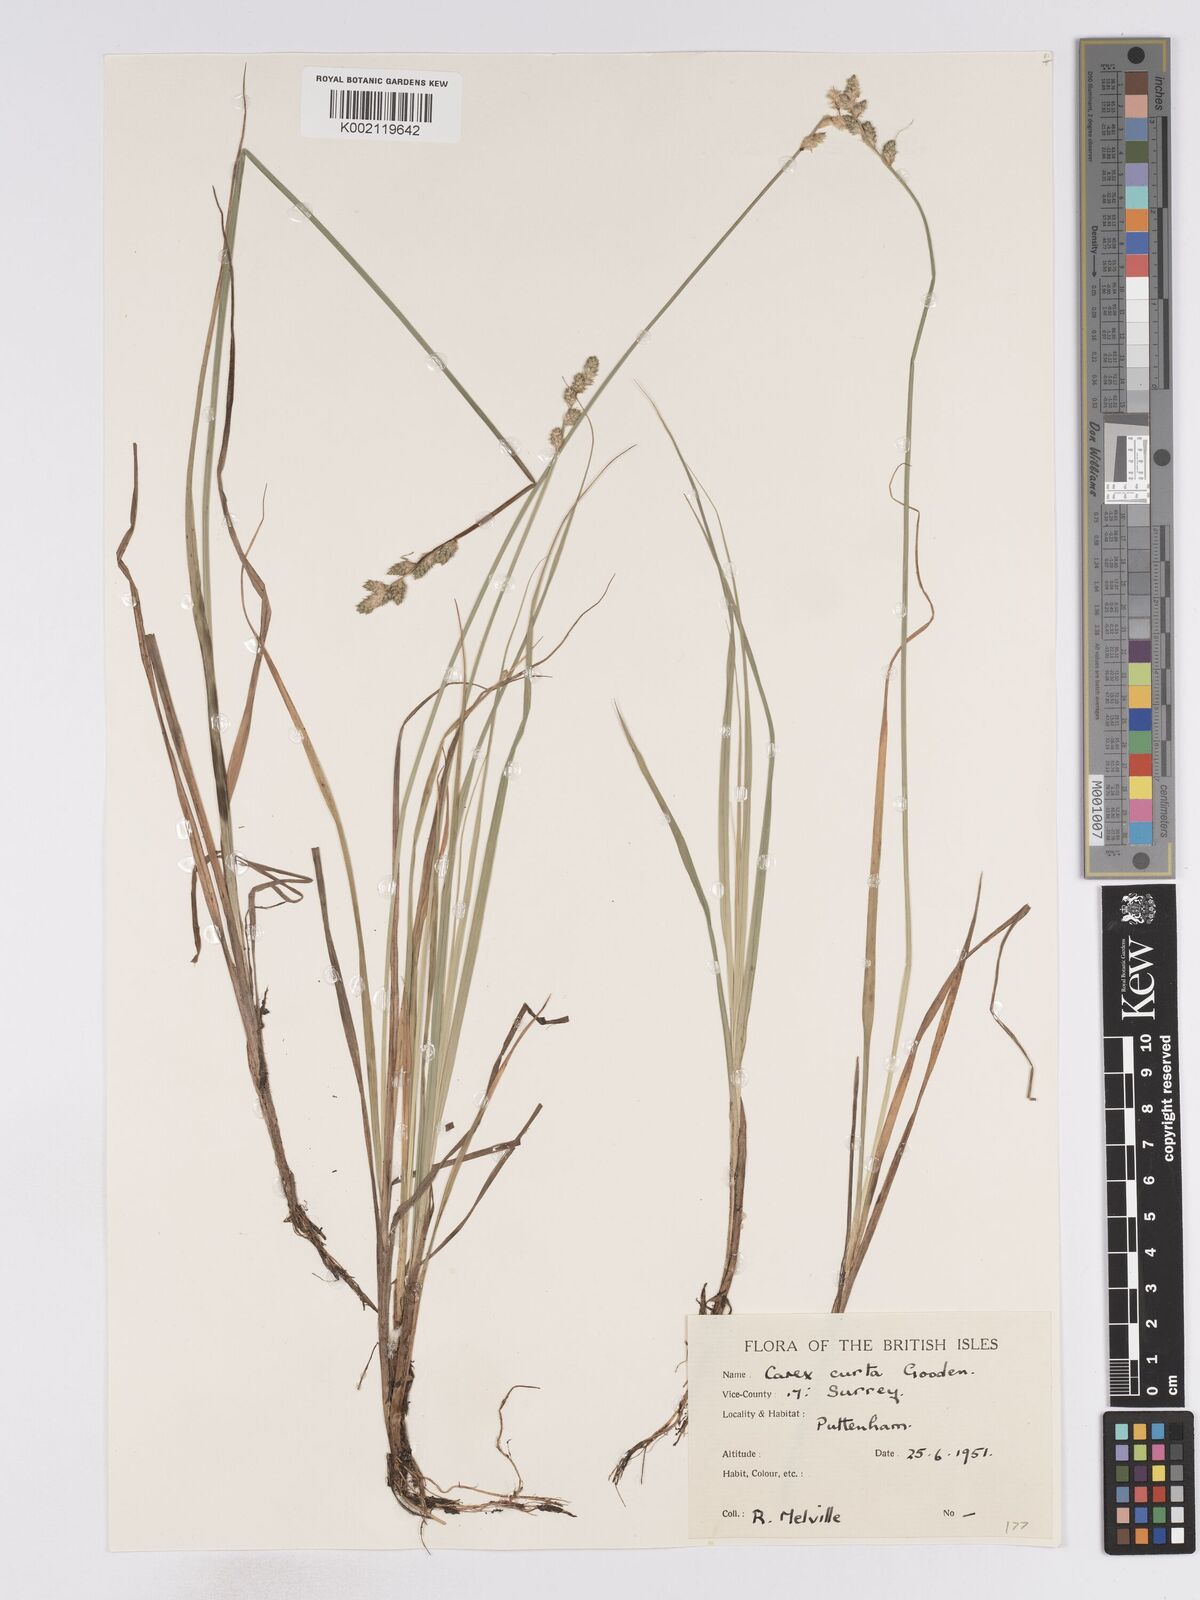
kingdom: Plantae
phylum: Tracheophyta
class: Liliopsida
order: Poales
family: Cyperaceae
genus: Carex
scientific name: Carex curta
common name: White sedge
